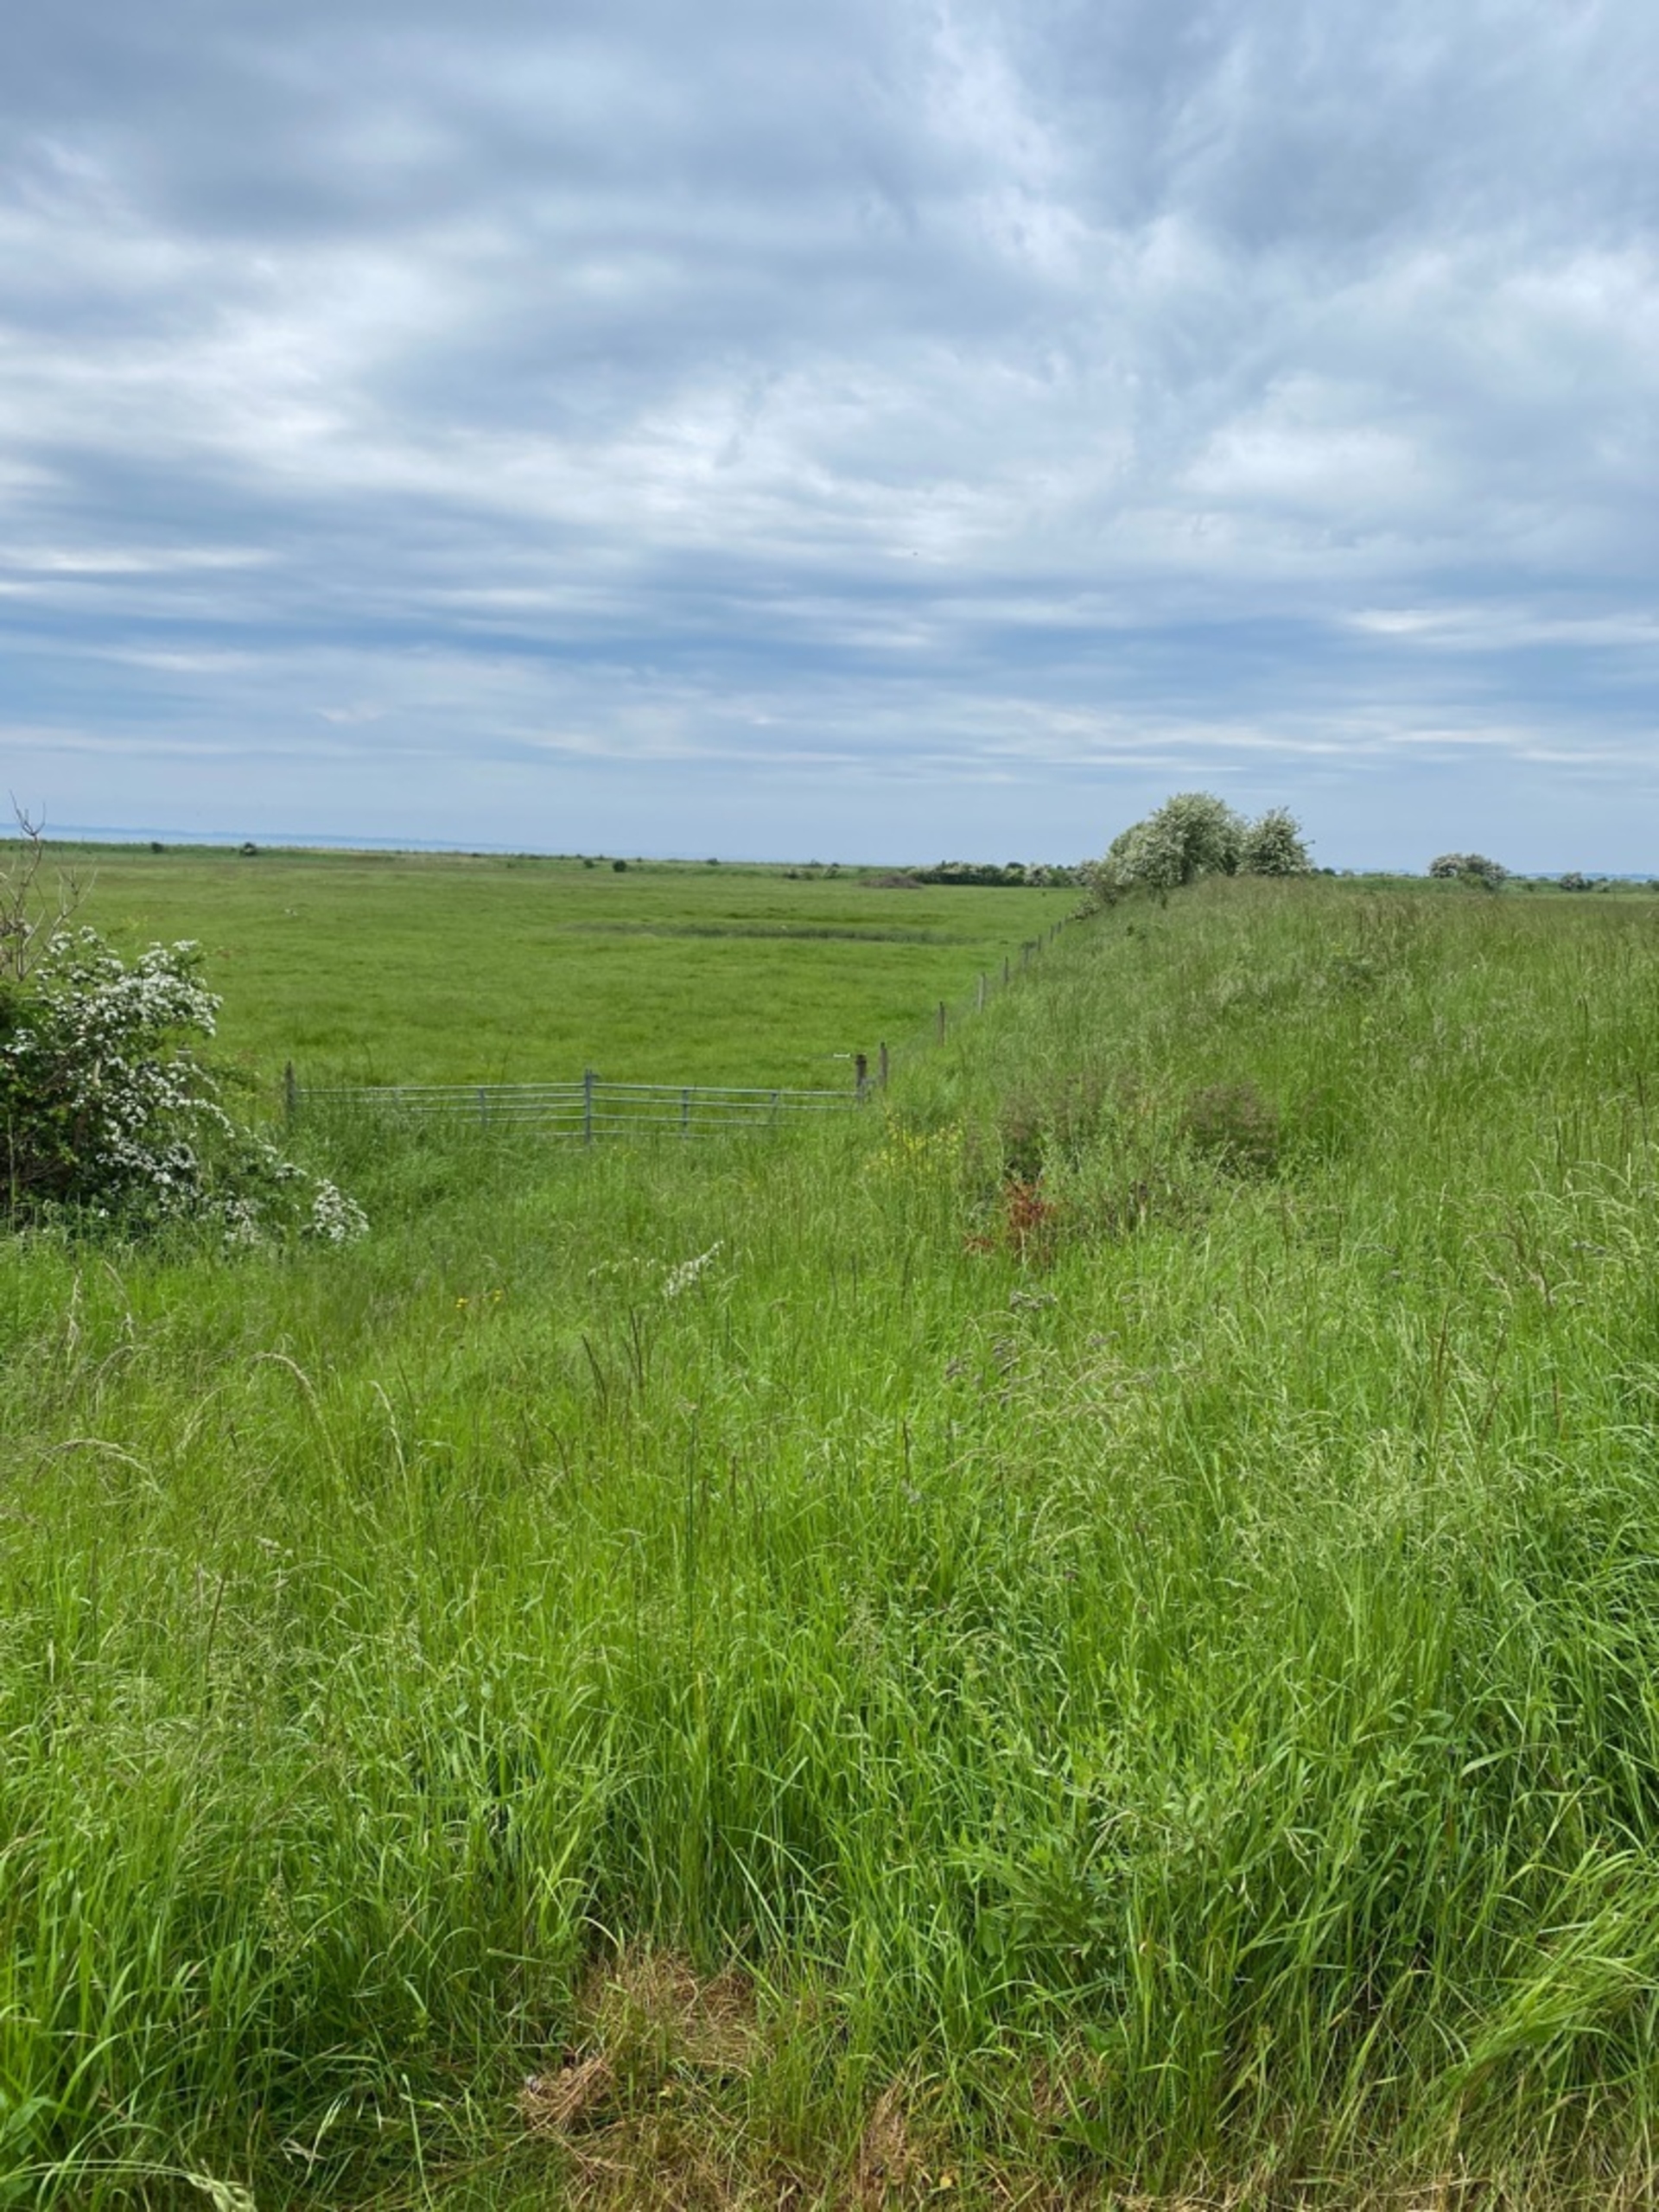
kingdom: Animalia
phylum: Chordata
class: Amphibia
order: Anura
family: Bombinatoridae
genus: Bombina
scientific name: Bombina bombina
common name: Klokkefrø
